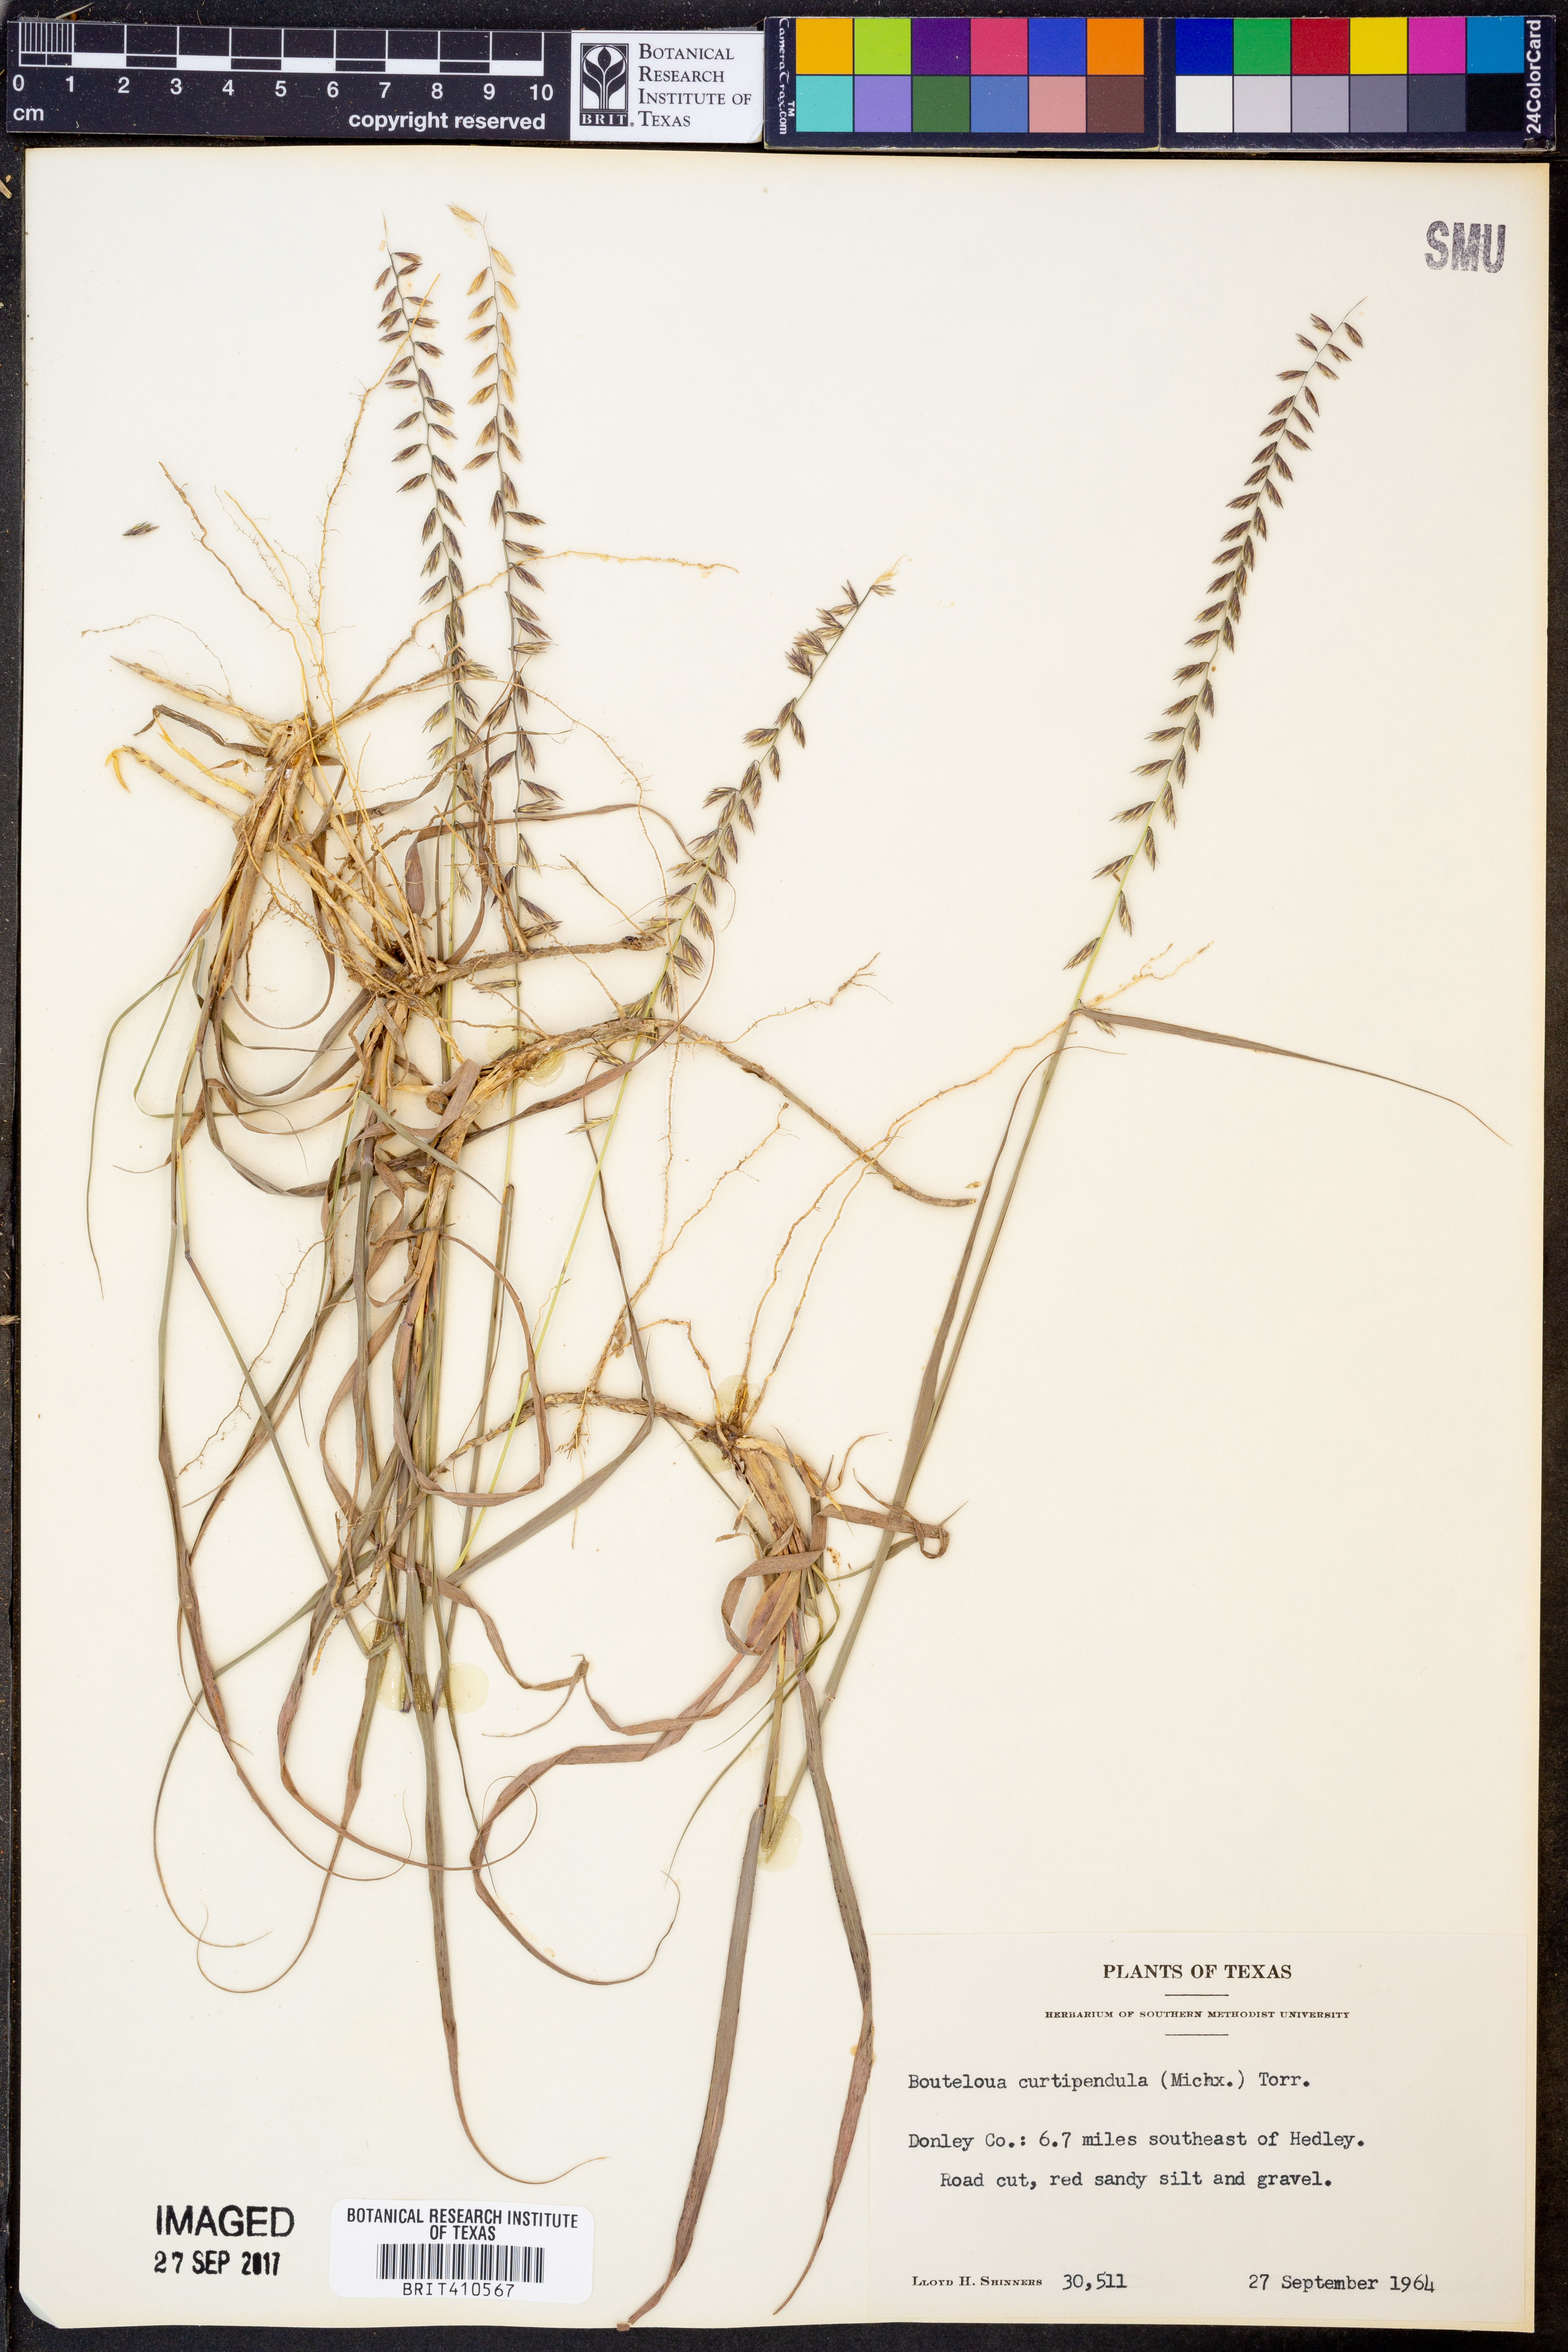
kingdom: Plantae
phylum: Tracheophyta
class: Liliopsida
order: Poales
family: Poaceae
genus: Bouteloua
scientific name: Bouteloua curtipendula
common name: Side-oats grama
